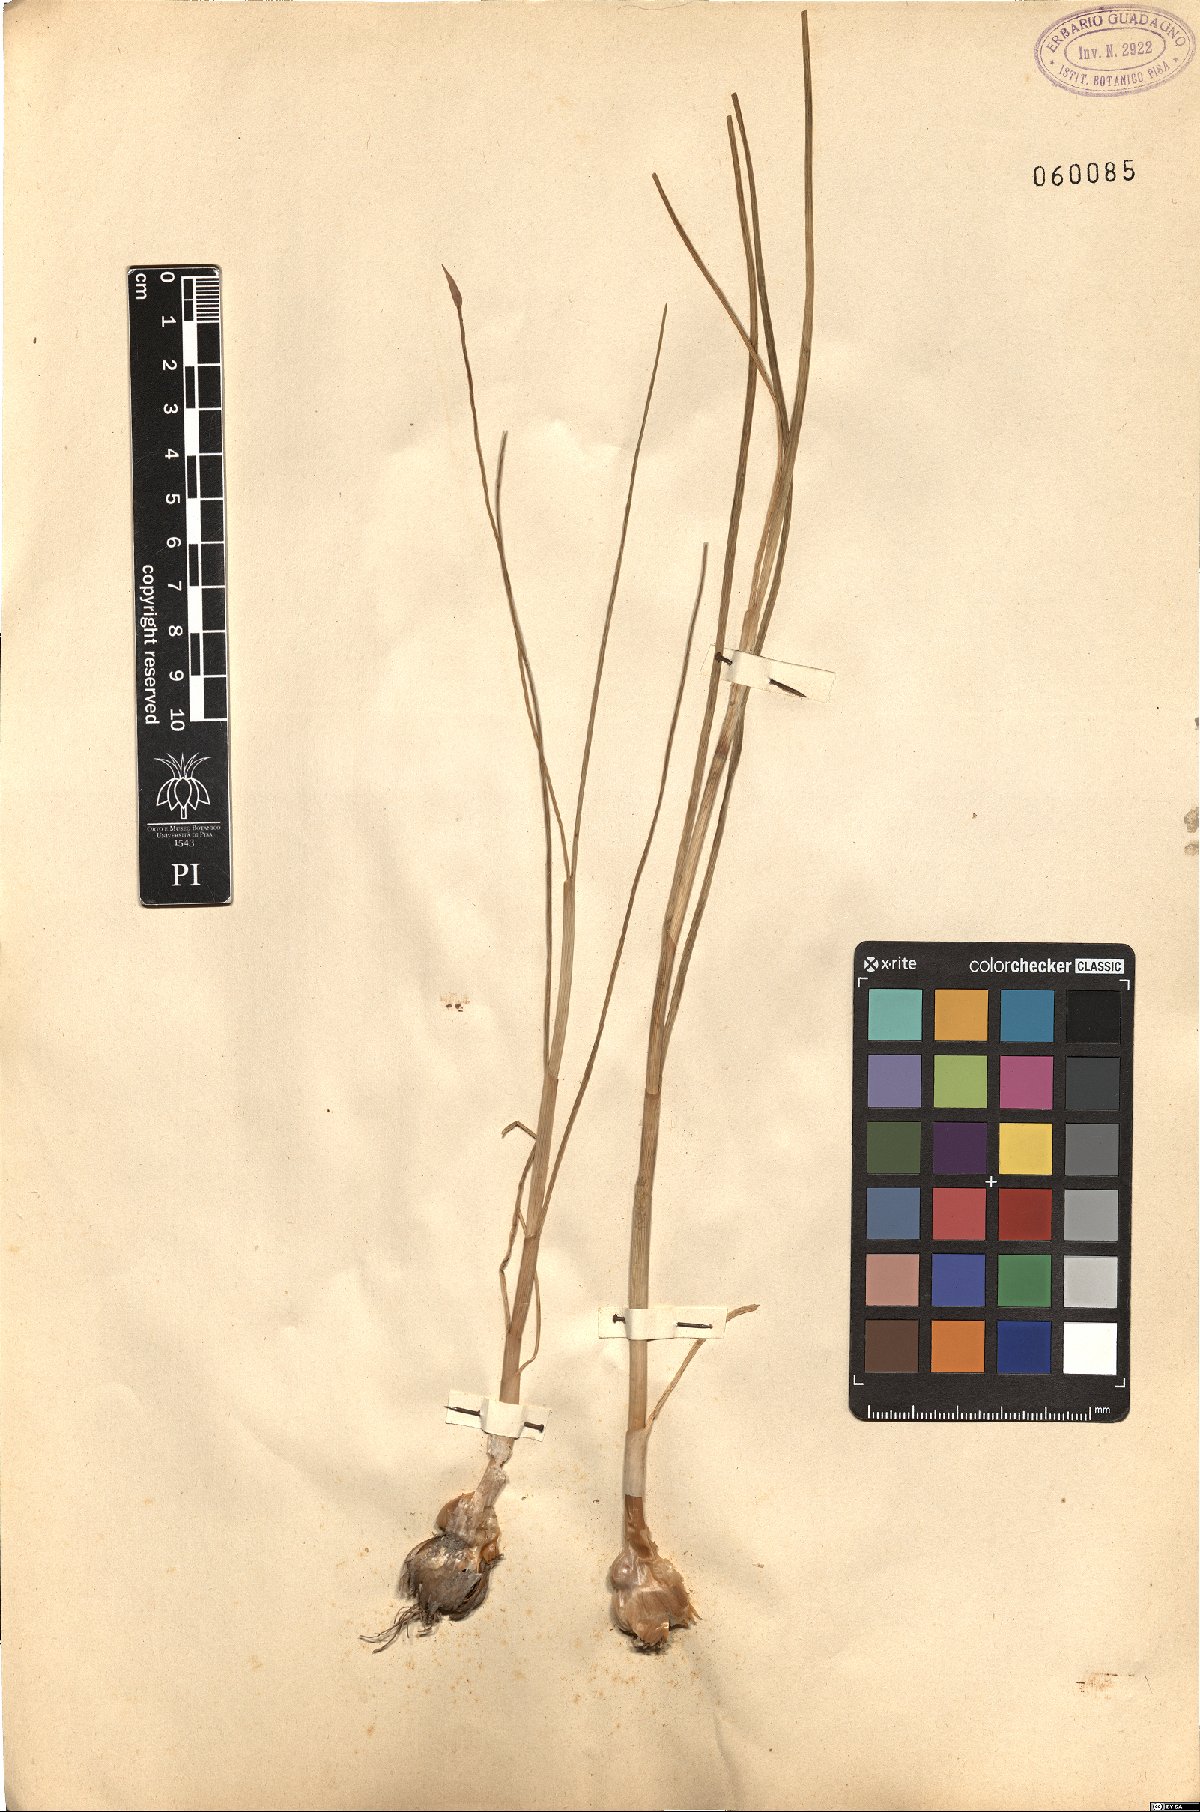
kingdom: Plantae
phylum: Tracheophyta
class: Liliopsida
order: Asparagales
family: Amaryllidaceae
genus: Allium
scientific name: Allium
